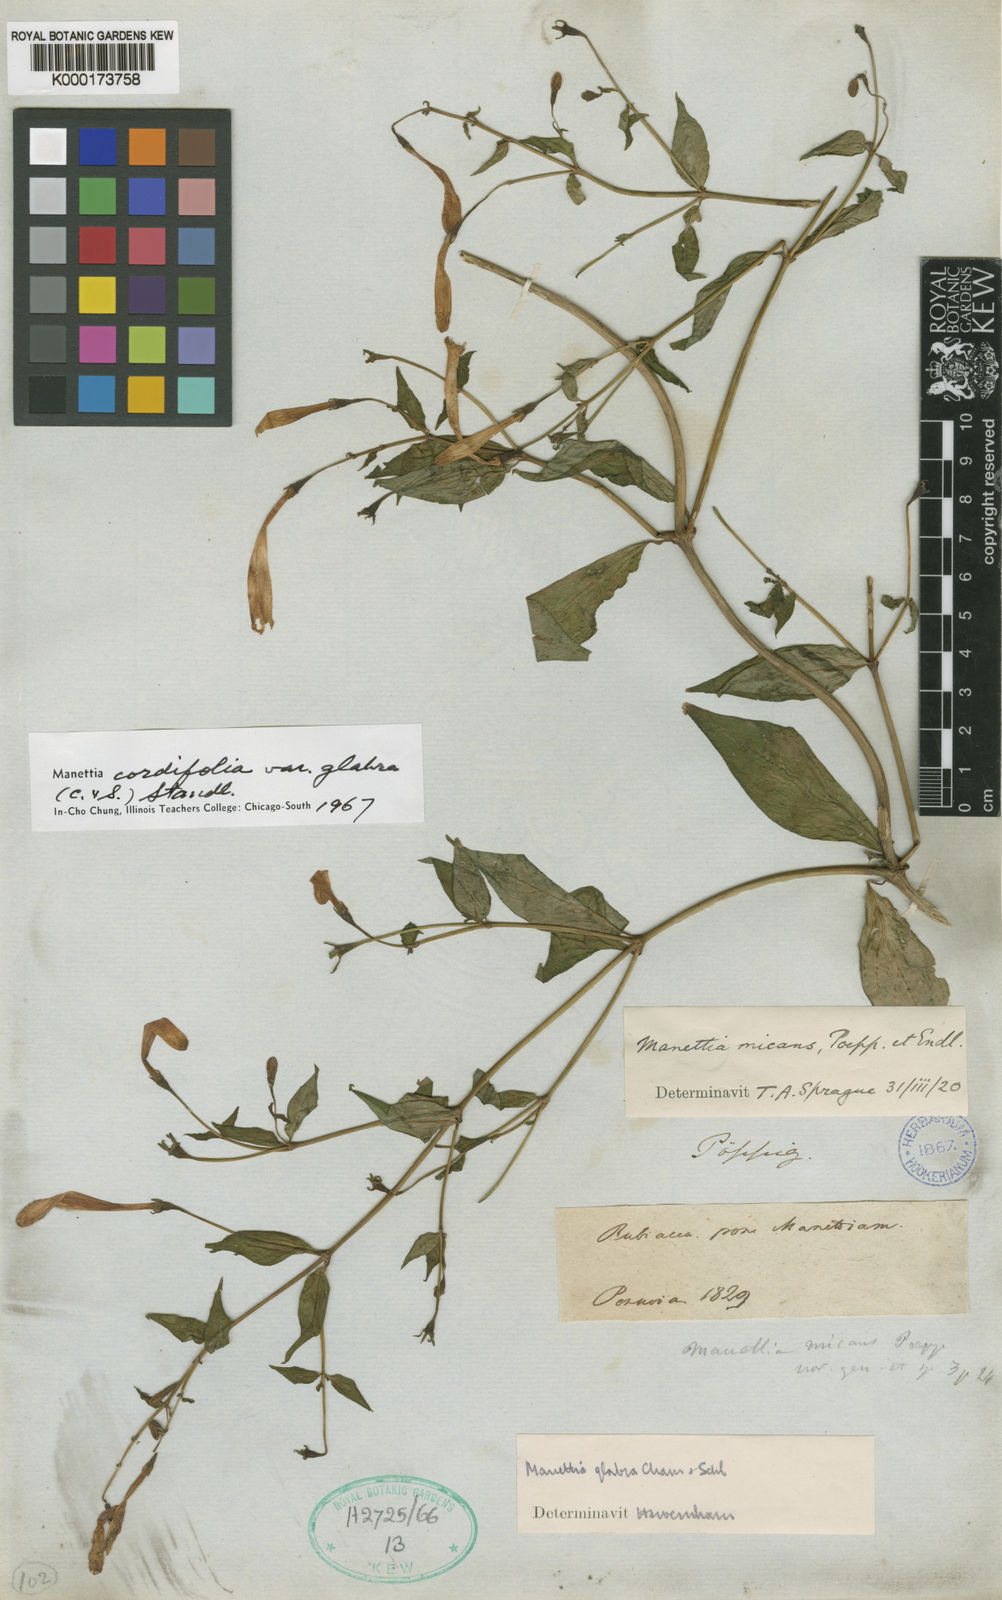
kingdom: Plantae
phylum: Tracheophyta
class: Magnoliopsida
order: Gentianales
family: Rubiaceae
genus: Manettia
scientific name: Manettia cordifolia
